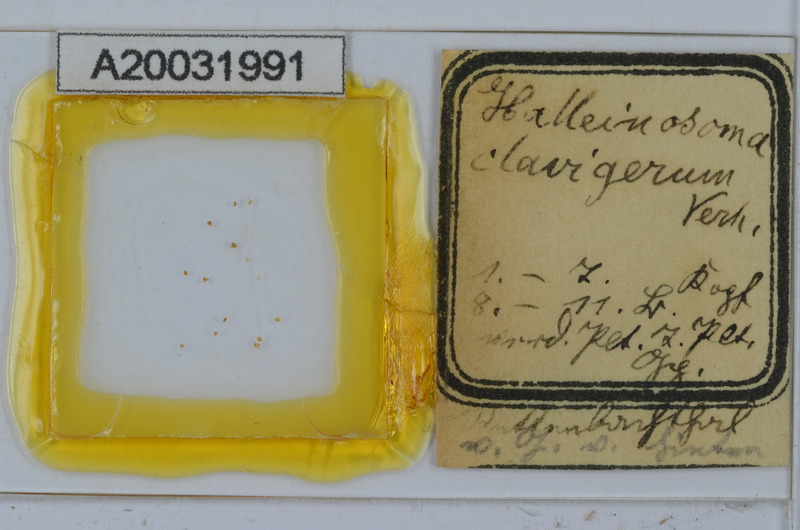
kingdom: Animalia
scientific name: Animalia
